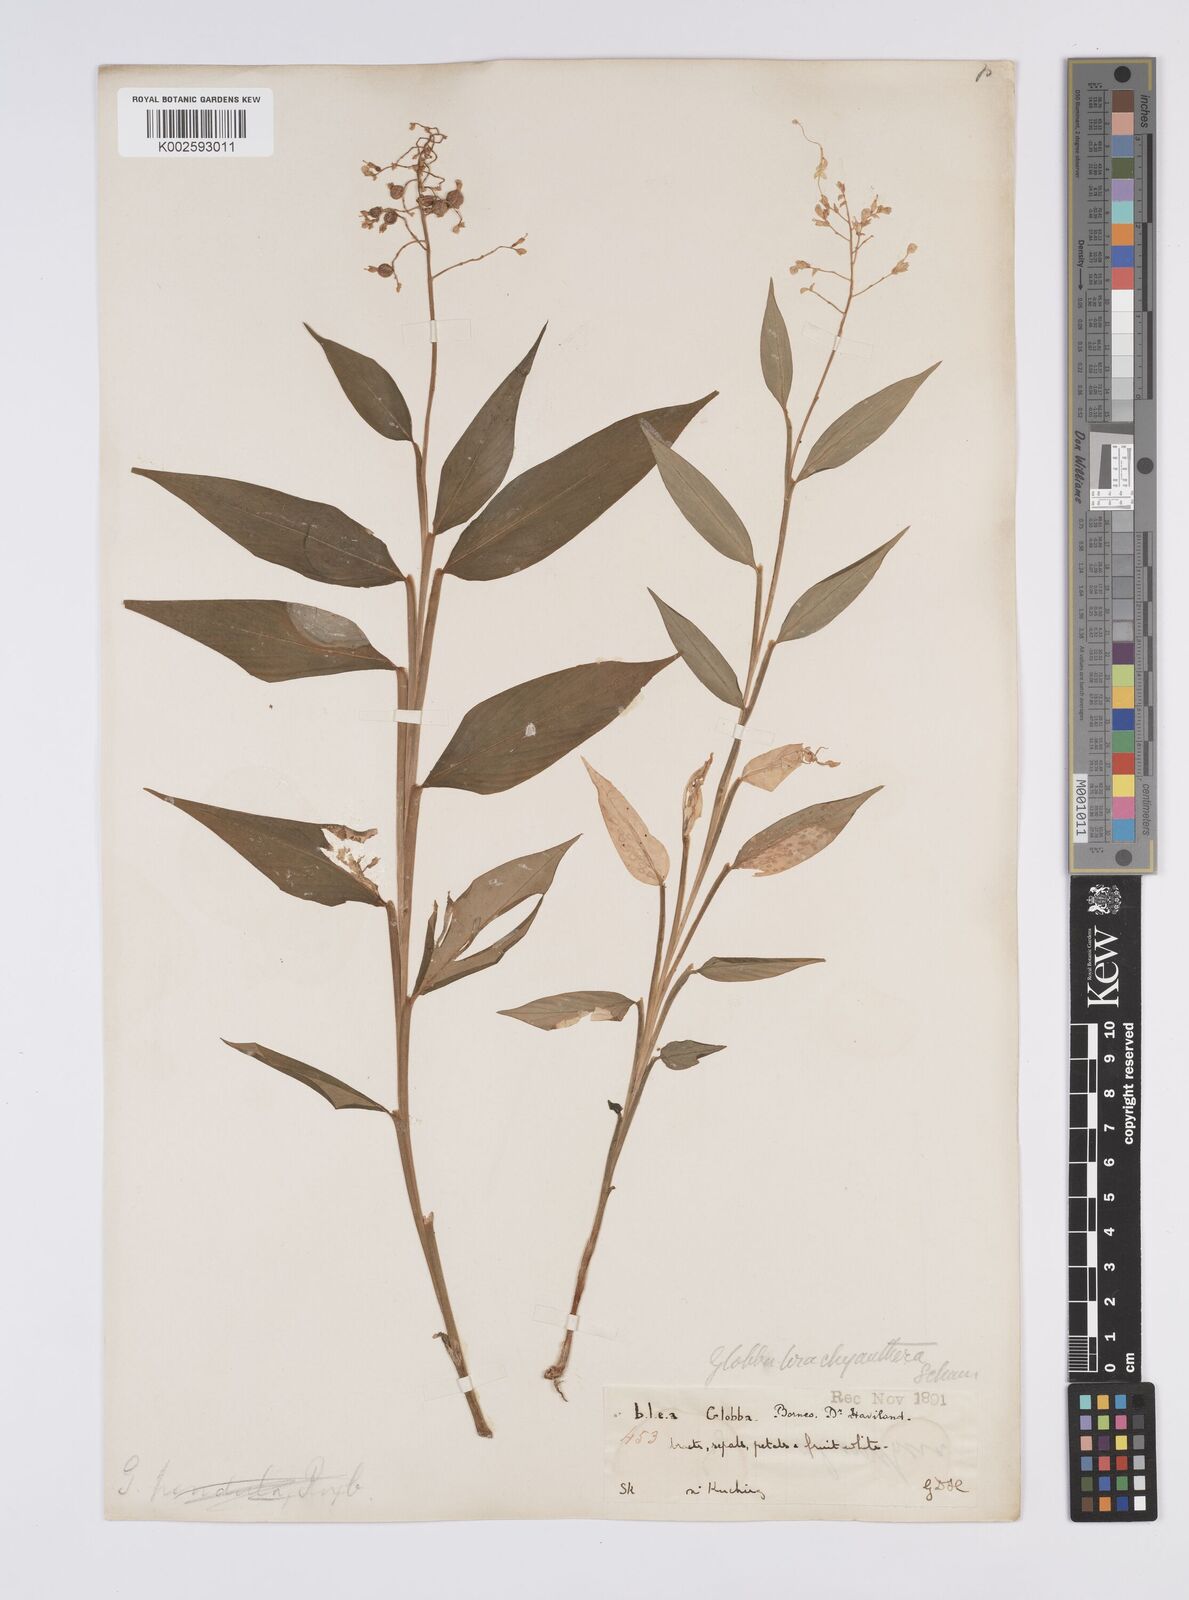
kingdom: Plantae
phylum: Tracheophyta
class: Liliopsida
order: Zingiberales
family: Zingiberaceae
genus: Globba
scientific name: Globba brachyanthera
